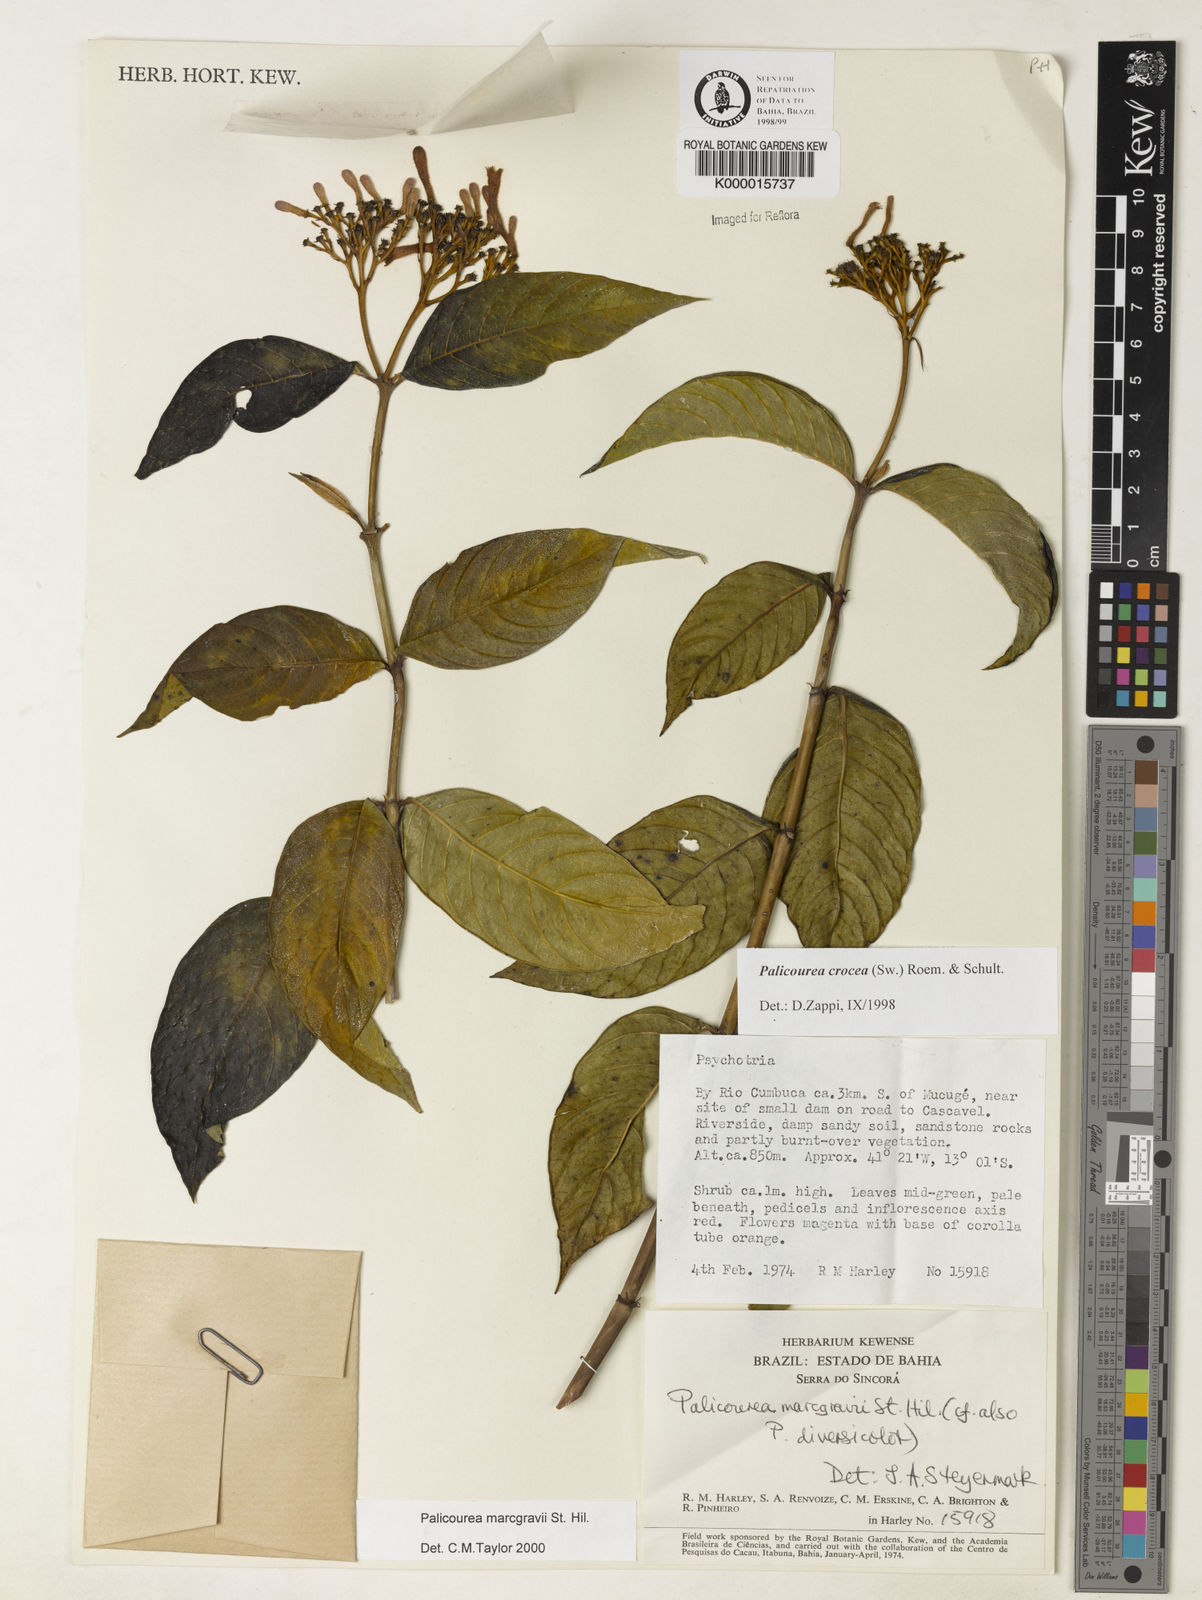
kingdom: Plantae
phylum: Tracheophyta
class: Magnoliopsida
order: Gentianales
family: Rubiaceae
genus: Palicourea
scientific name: Palicourea marcgravii
